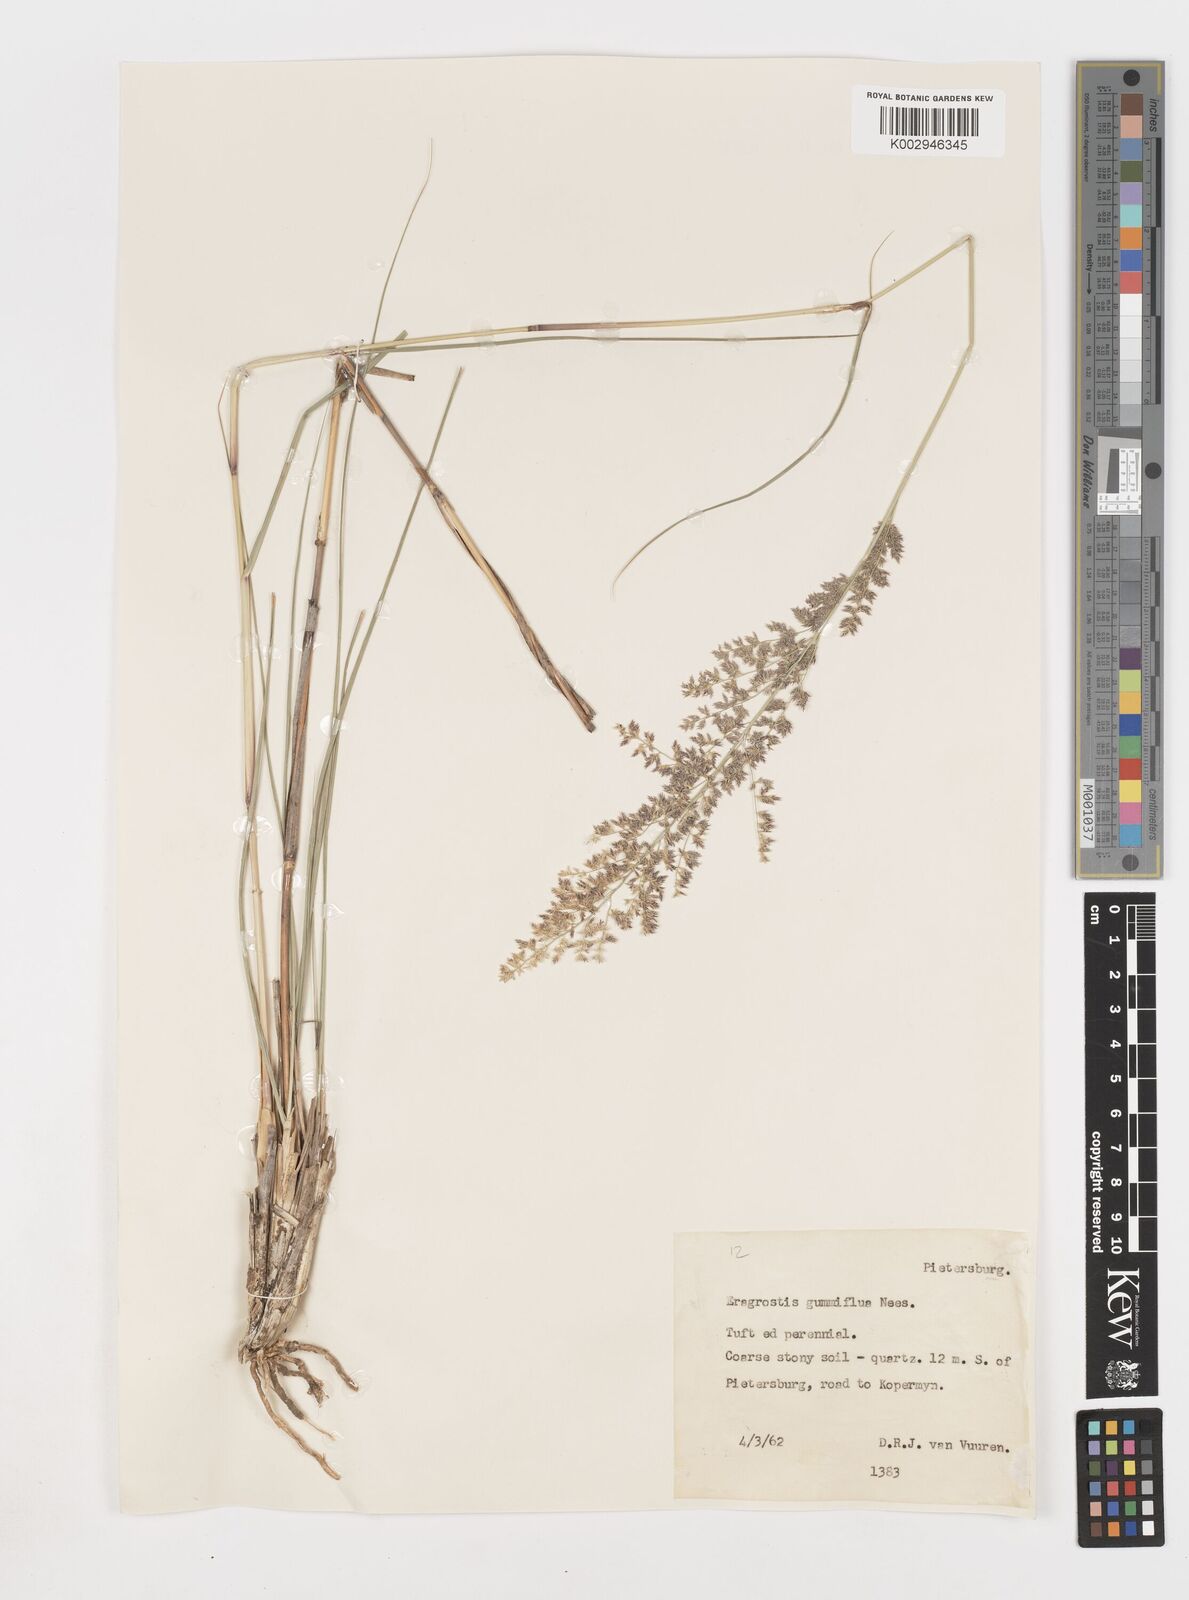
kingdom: Plantae
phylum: Tracheophyta
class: Liliopsida
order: Poales
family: Poaceae
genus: Eragrostis
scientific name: Eragrostis gummiflua
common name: Gum grass
